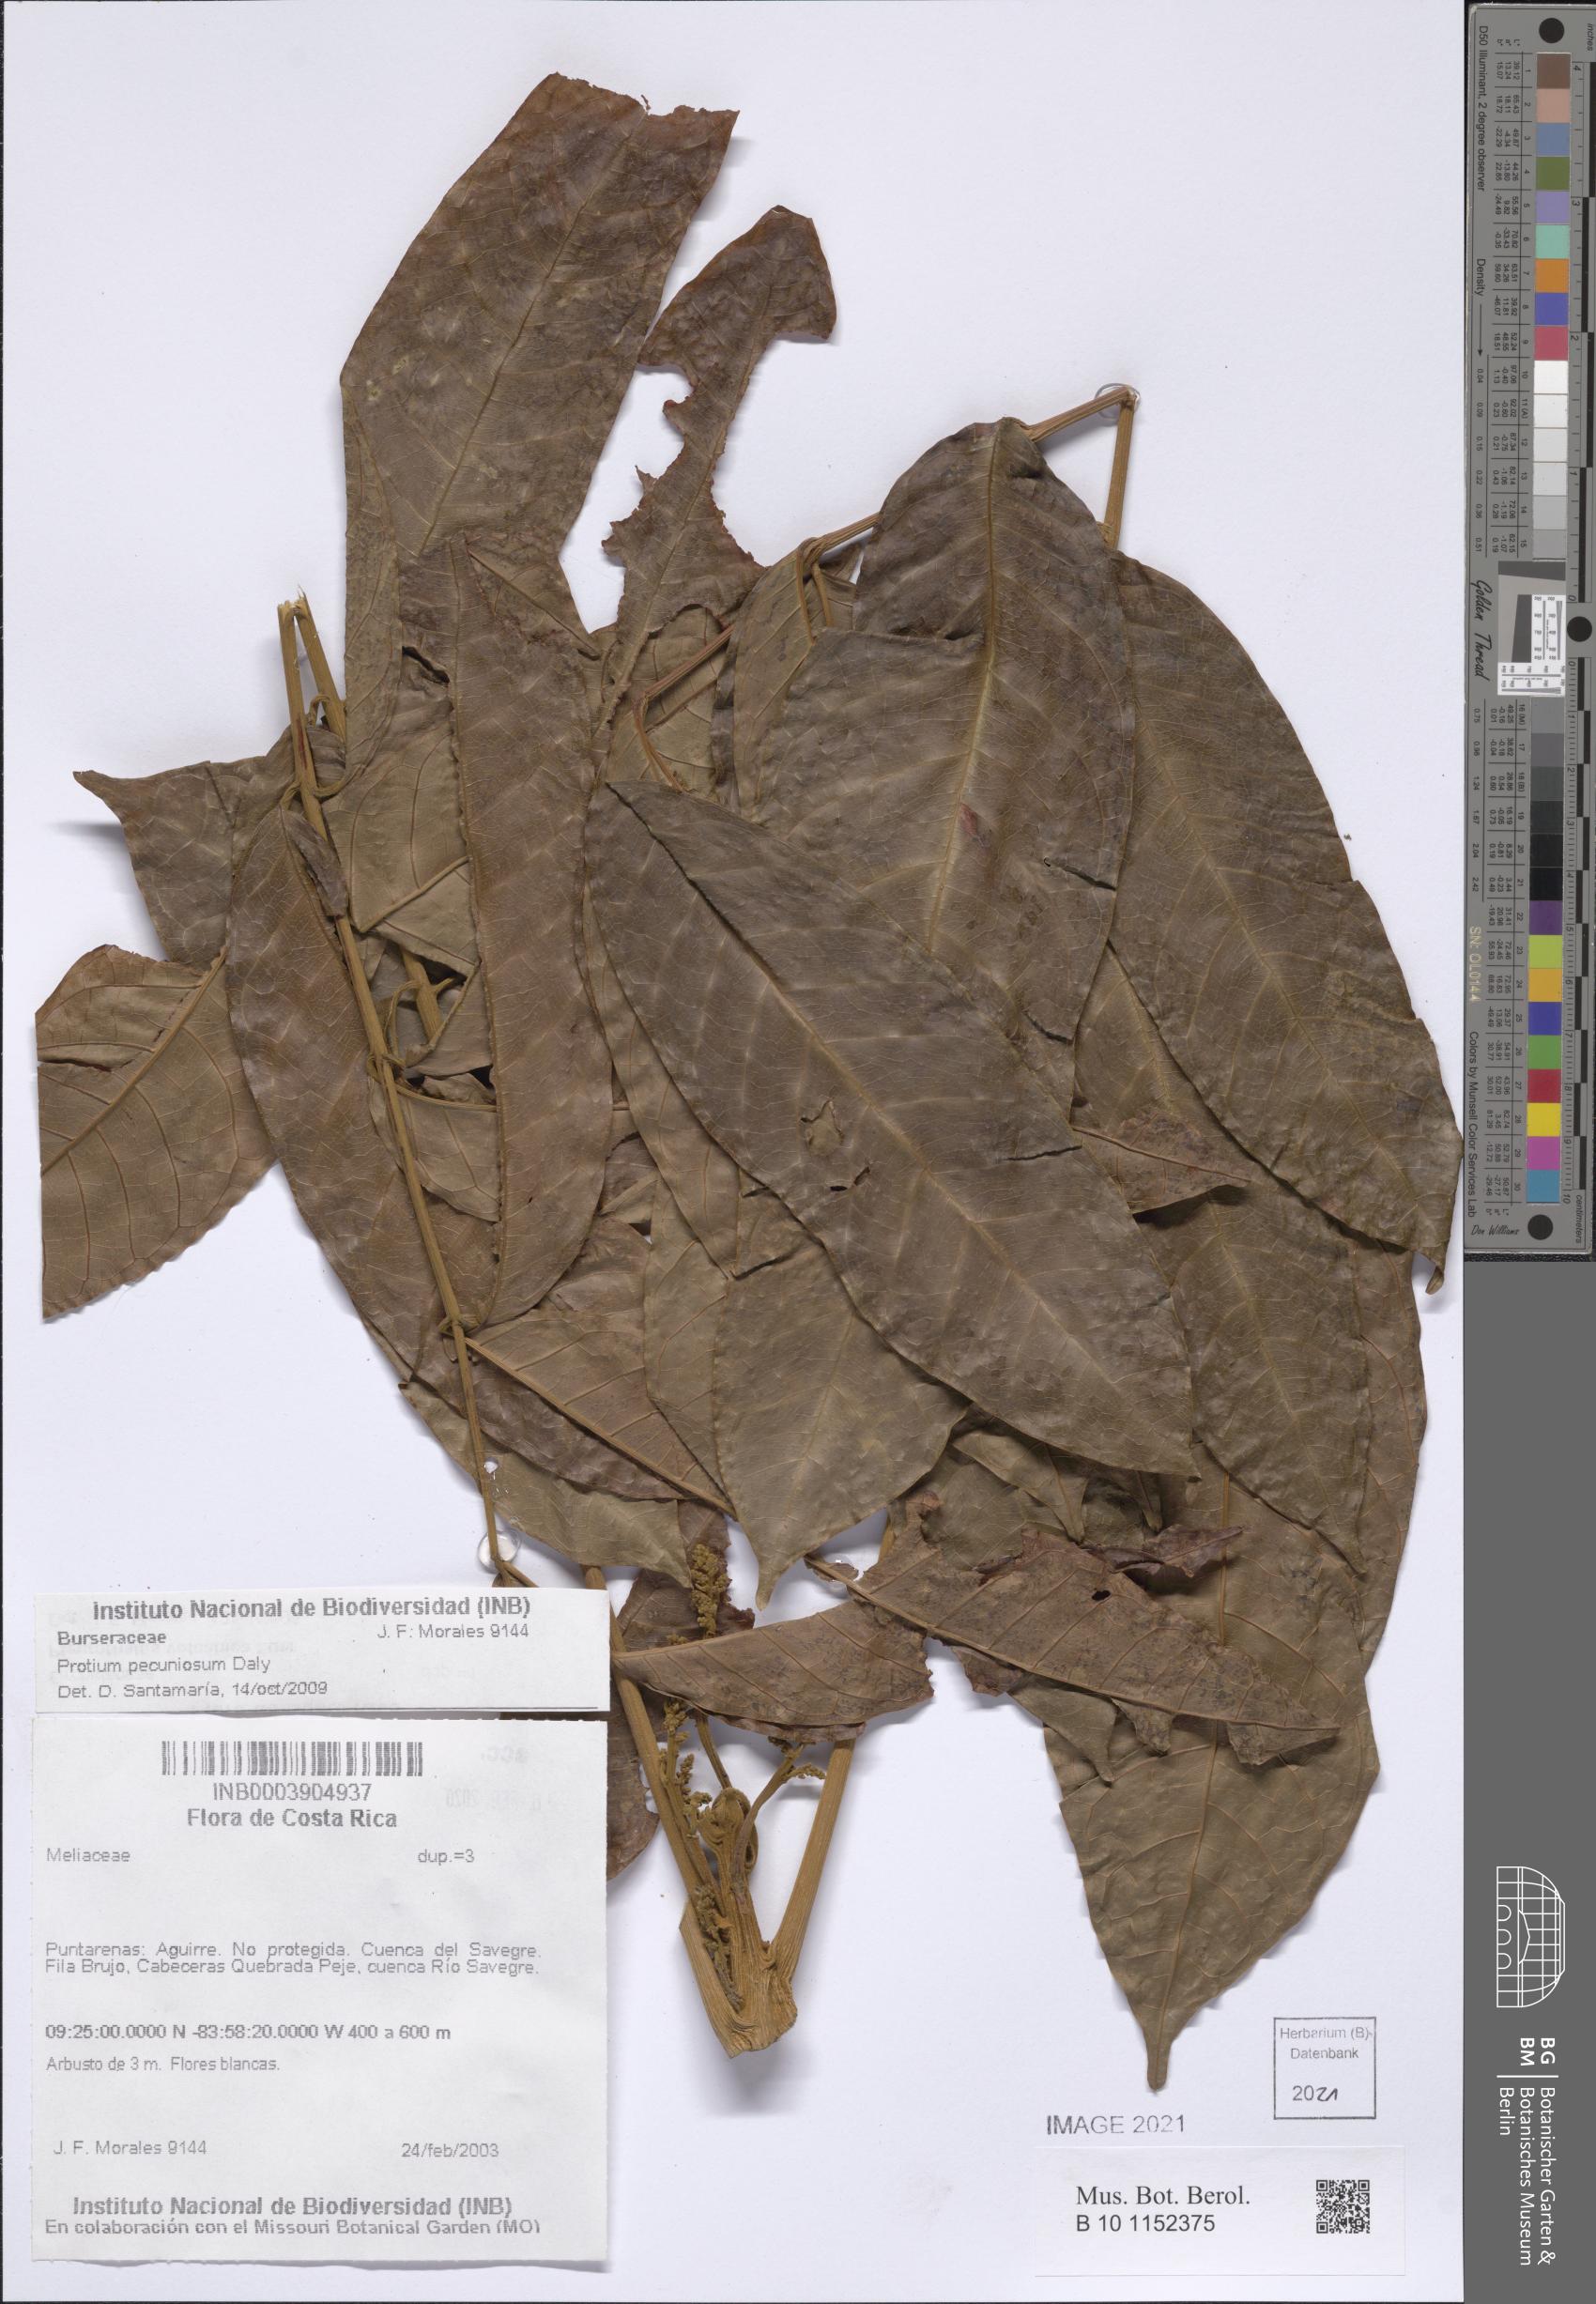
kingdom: Plantae
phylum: Tracheophyta
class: Magnoliopsida
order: Sapindales
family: Burseraceae
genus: Protium
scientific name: Protium pecuniosum
